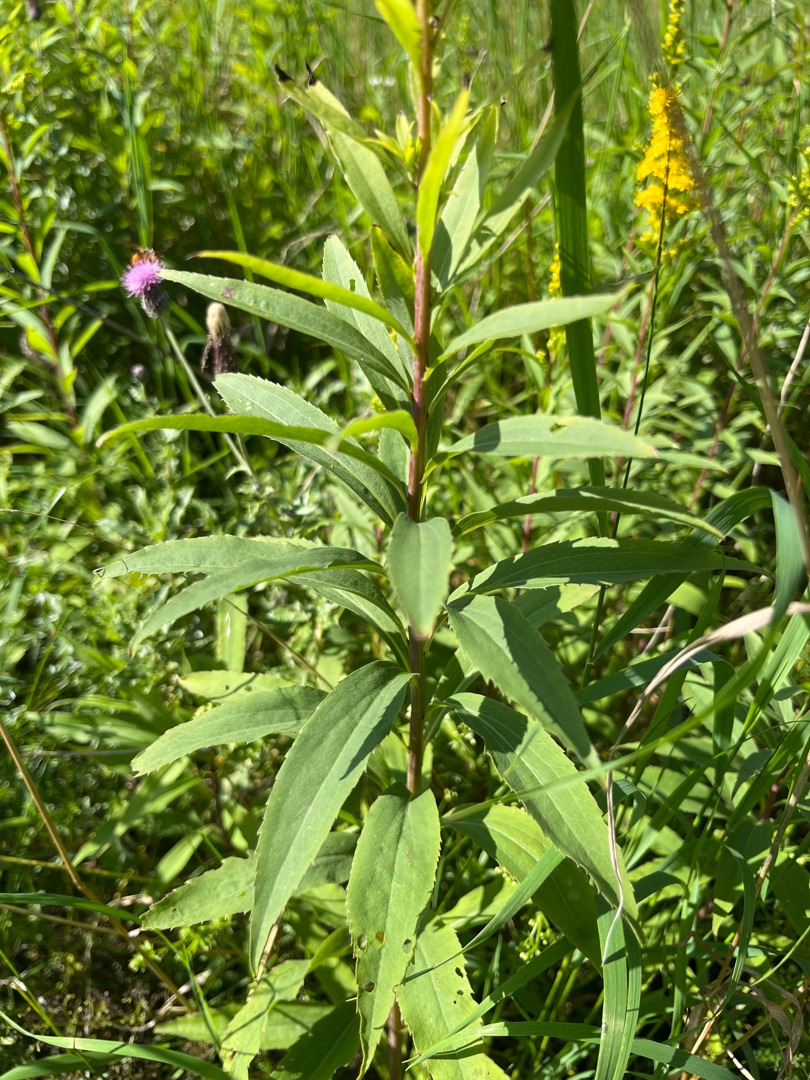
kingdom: Plantae
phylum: Tracheophyta
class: Magnoliopsida
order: Asterales
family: Asteraceae
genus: Solidago
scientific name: Solidago gigantea
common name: Sildig gyldenris
